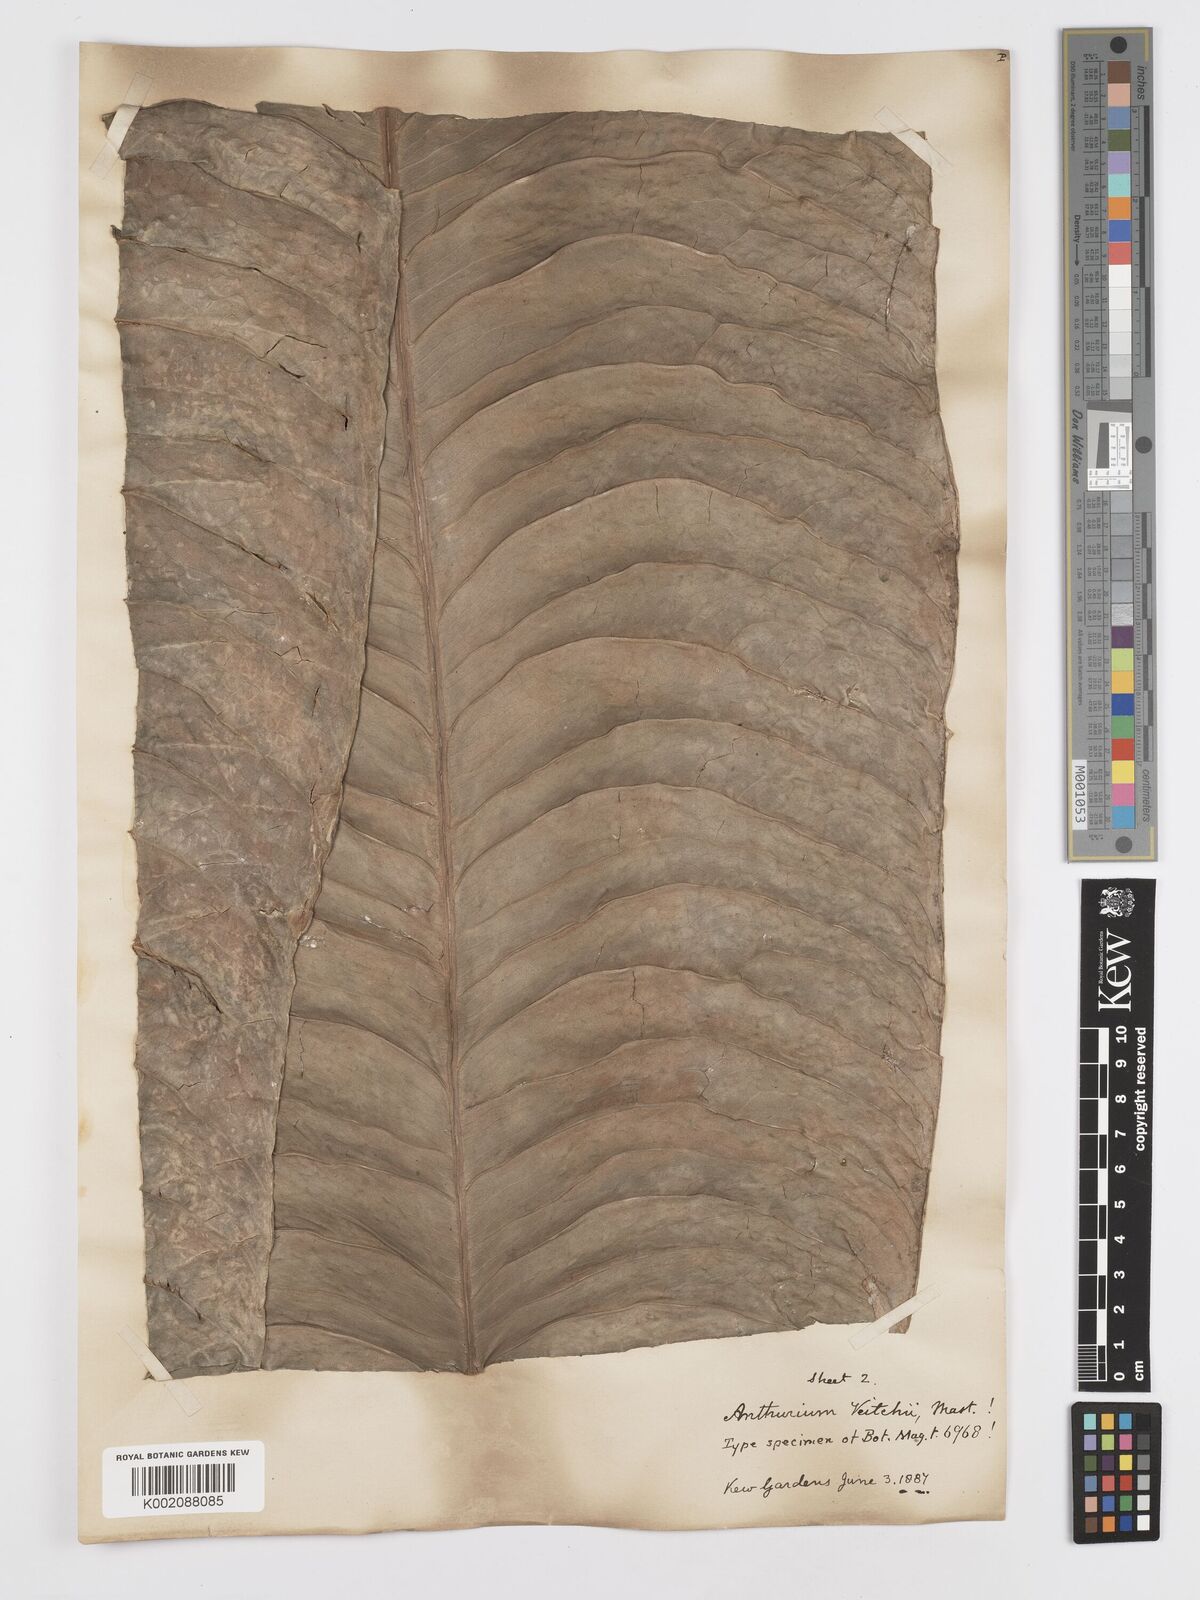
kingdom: Plantae
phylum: Tracheophyta
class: Liliopsida
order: Alismatales
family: Araceae
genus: Anthurium
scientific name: Anthurium veitchii
